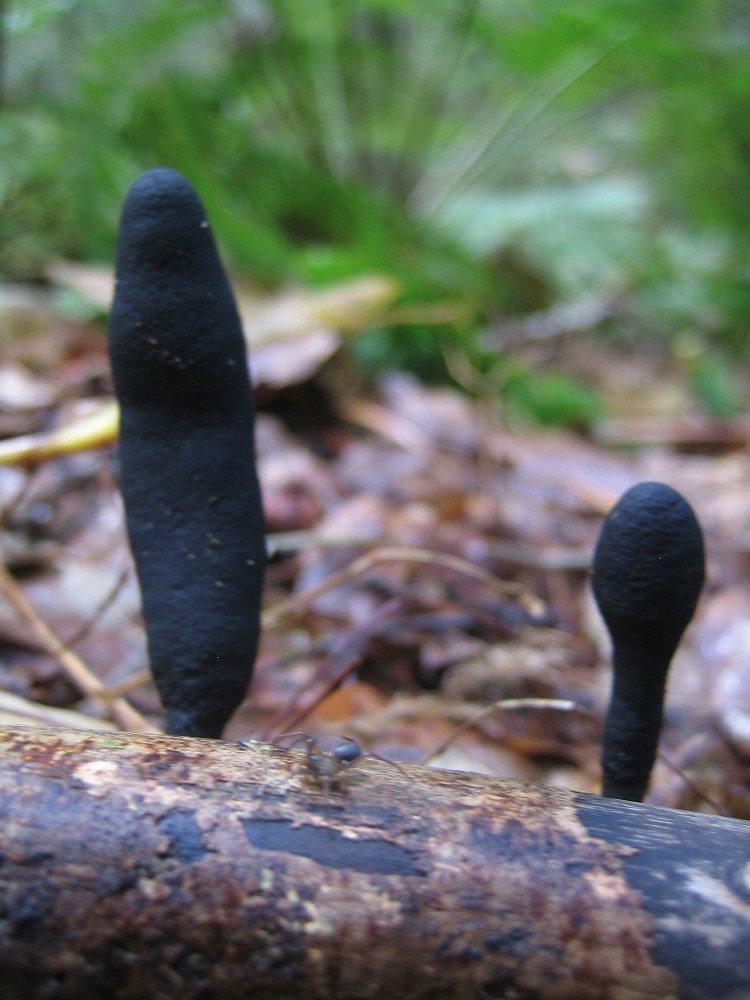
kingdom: Fungi
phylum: Ascomycota
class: Sordariomycetes
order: Xylariales
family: Xylariaceae
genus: Xylaria
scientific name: Xylaria longipes
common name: slank stødsvamp
